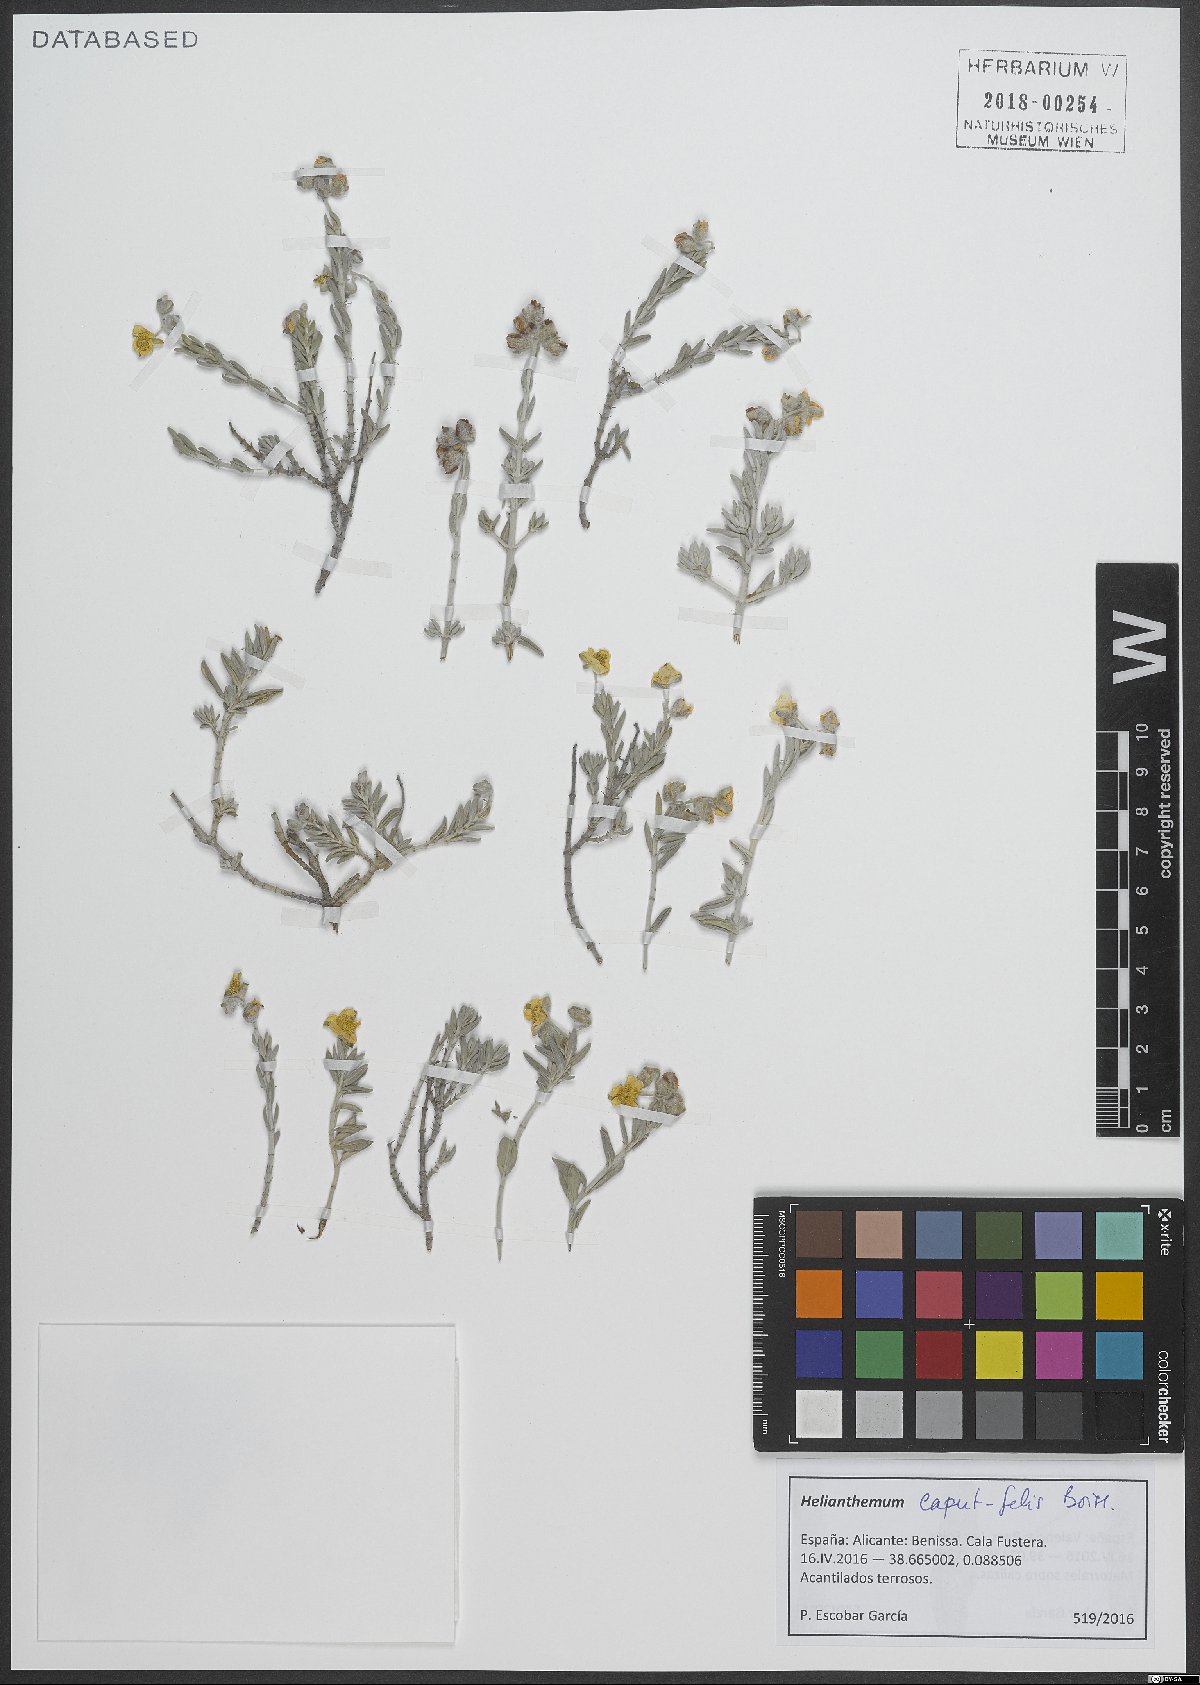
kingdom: Plantae
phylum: Tracheophyta
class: Magnoliopsida
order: Malvales
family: Cistaceae
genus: Helianthemum
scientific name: Helianthemum caput-felis
